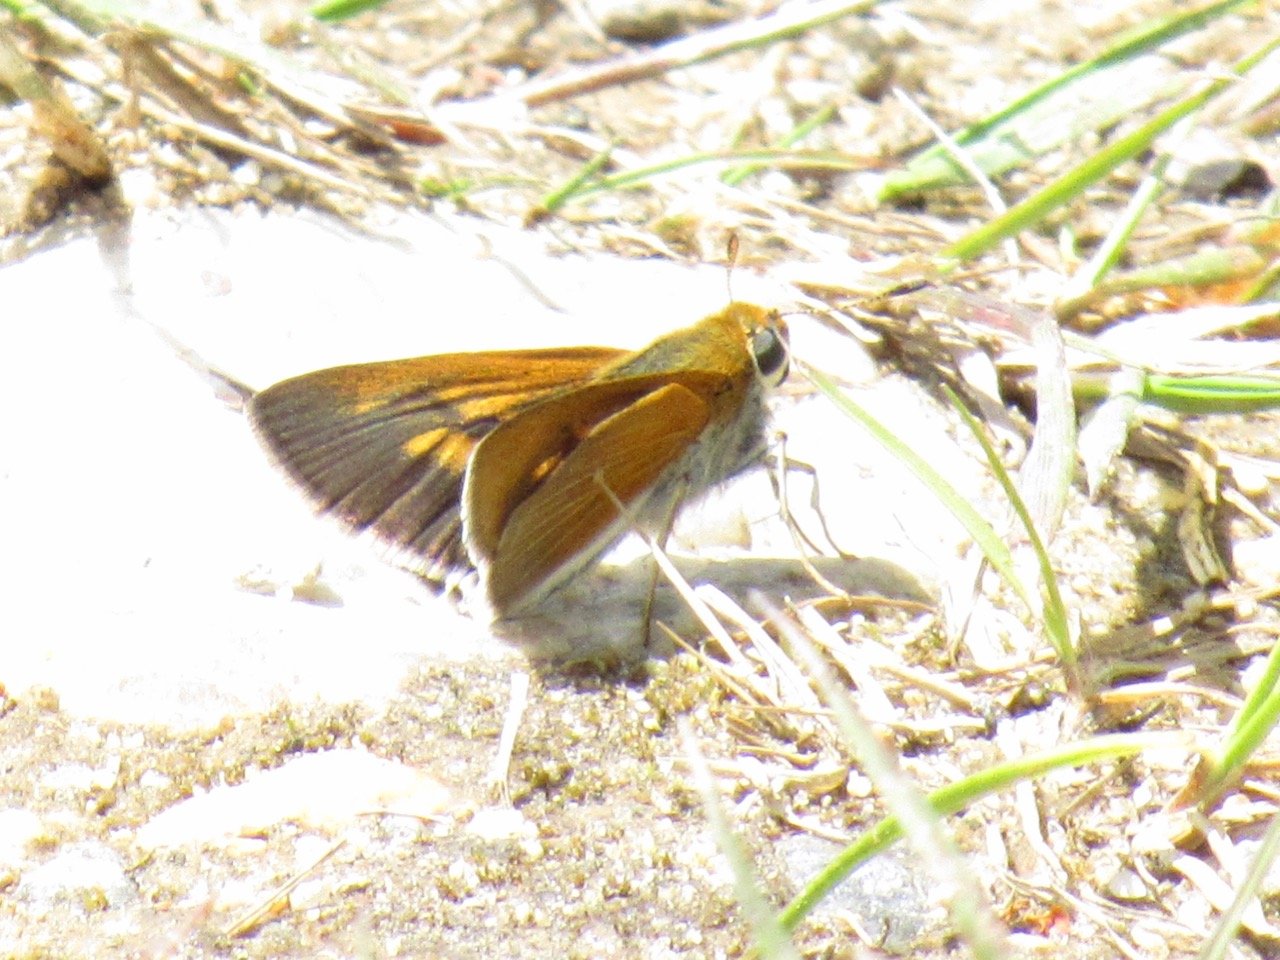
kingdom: Animalia
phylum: Arthropoda
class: Insecta
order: Lepidoptera
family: Hesperiidae
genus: Euphyes
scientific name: Euphyes bimacula
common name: Two-spotted Skipper
